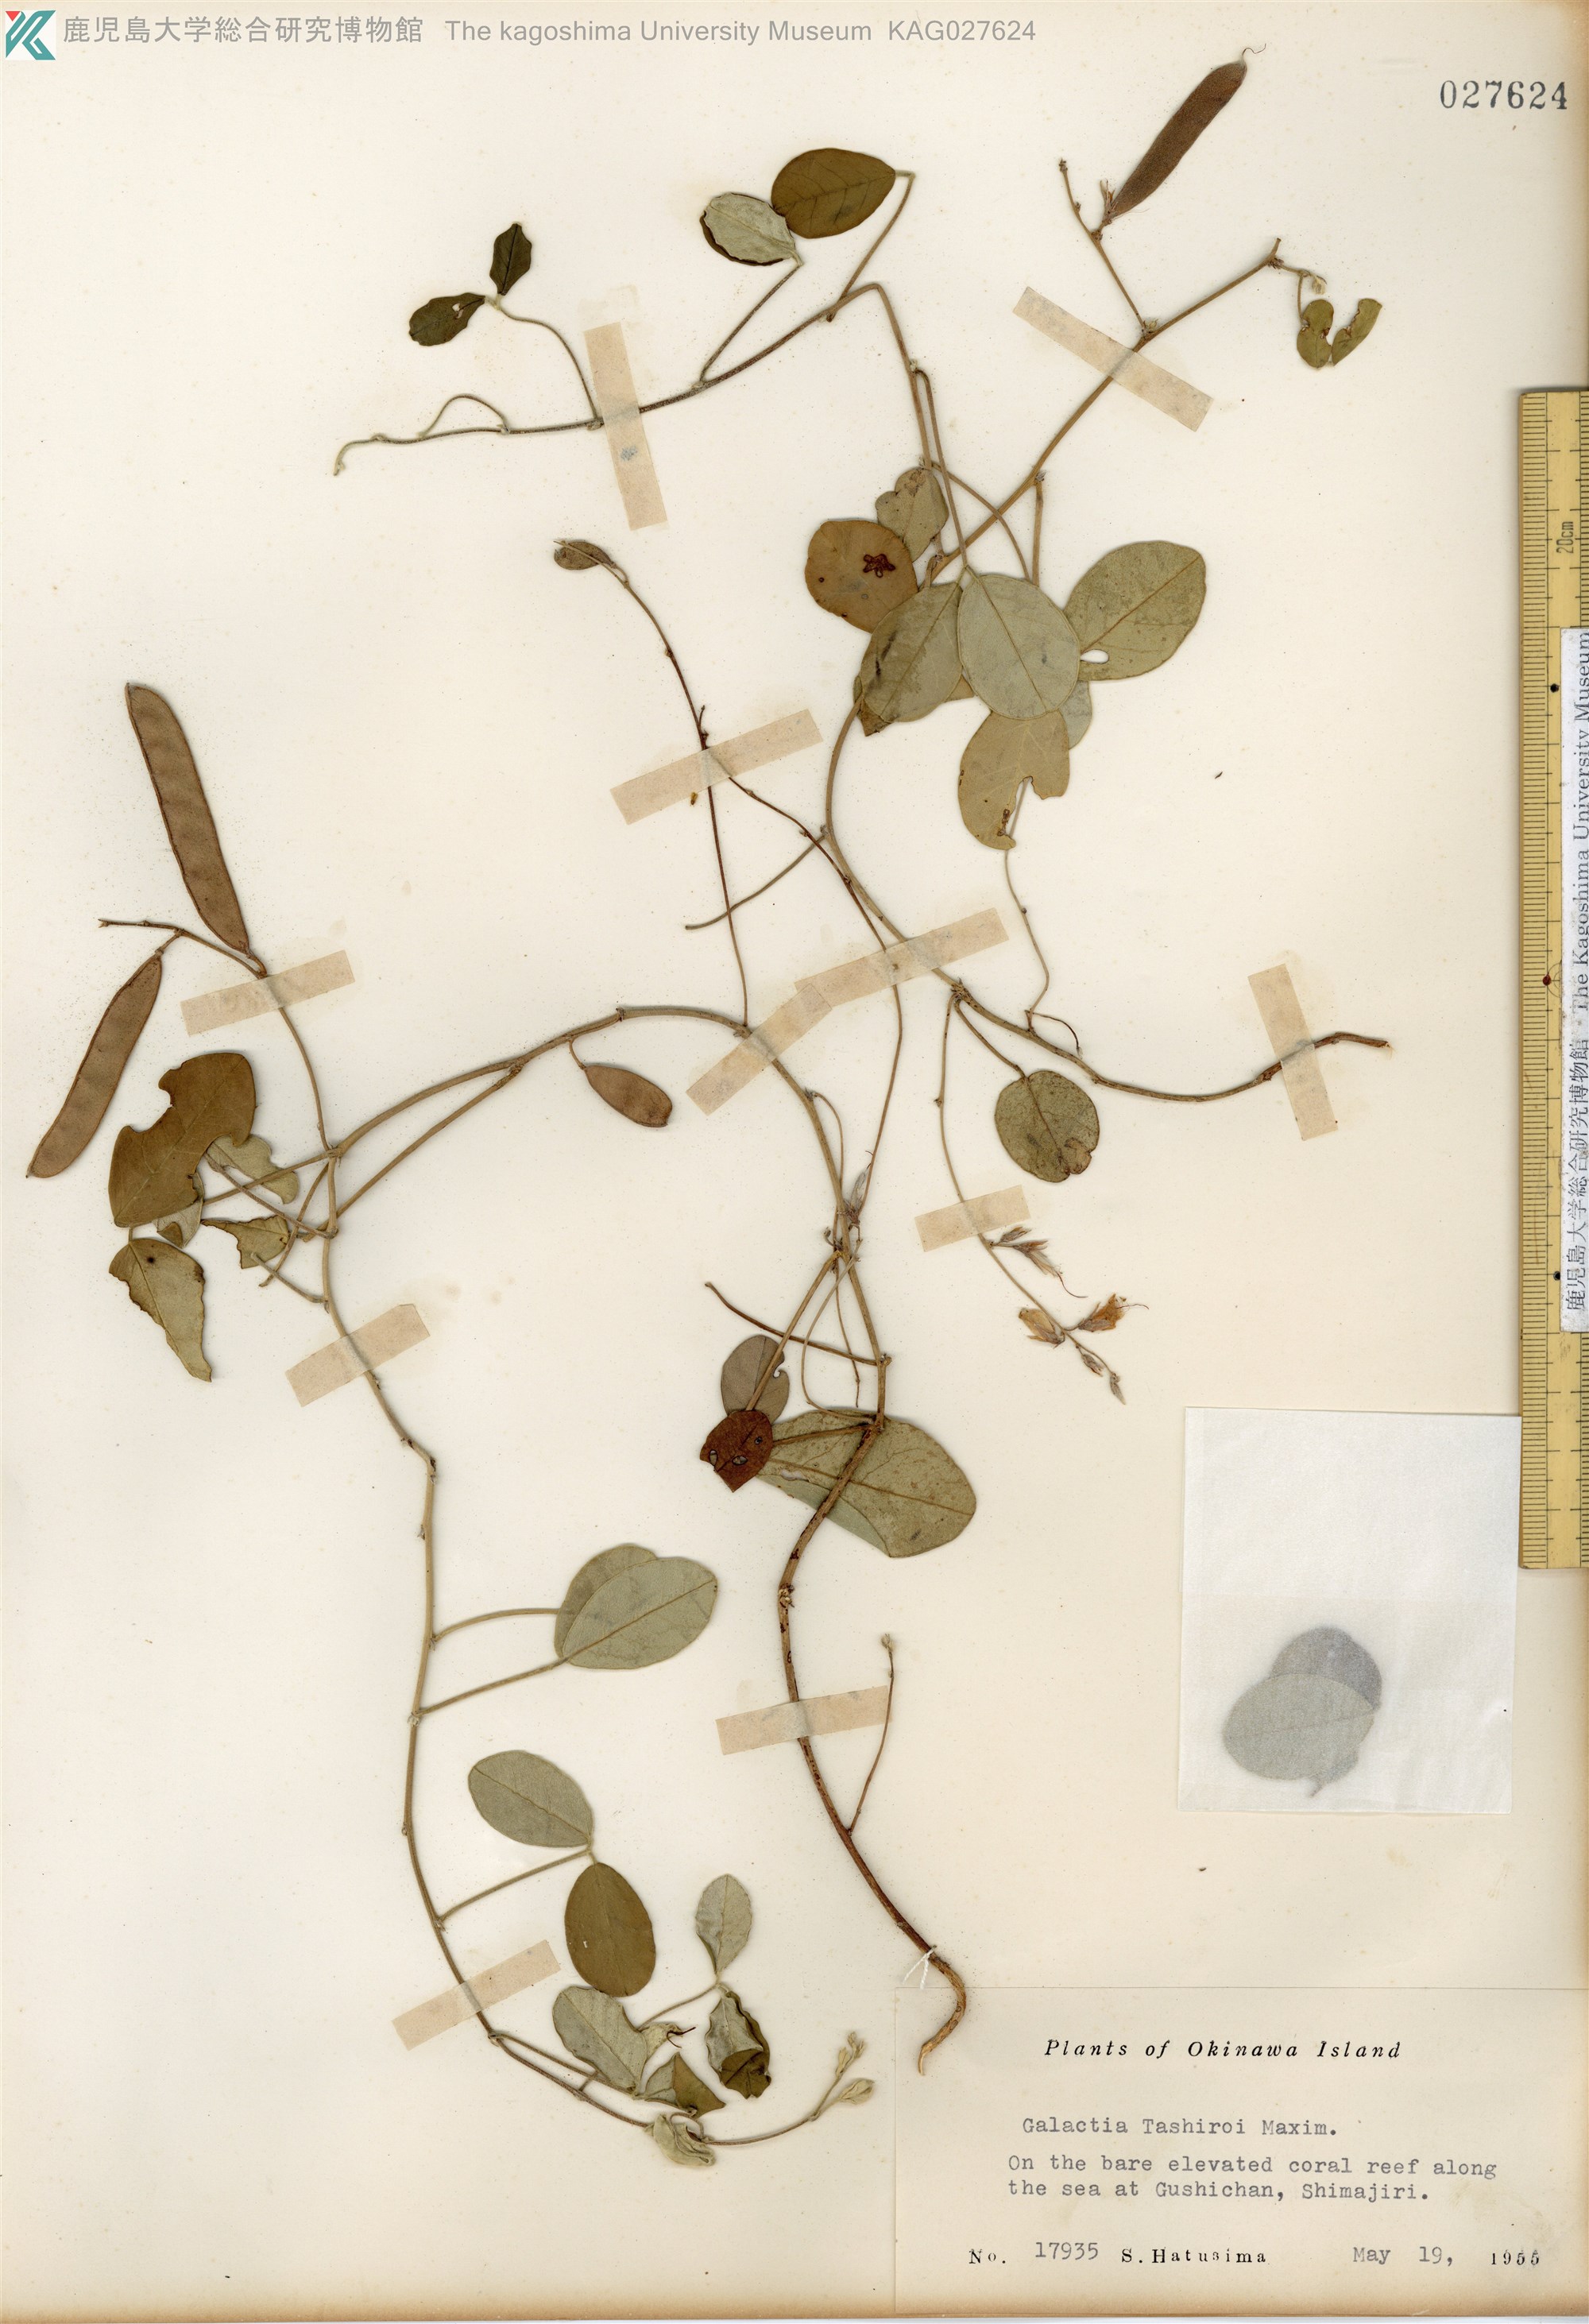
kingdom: Plantae
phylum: Tracheophyta
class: Magnoliopsida
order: Fabales
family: Fabaceae
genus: Galactia
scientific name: Galactia tashiroi
